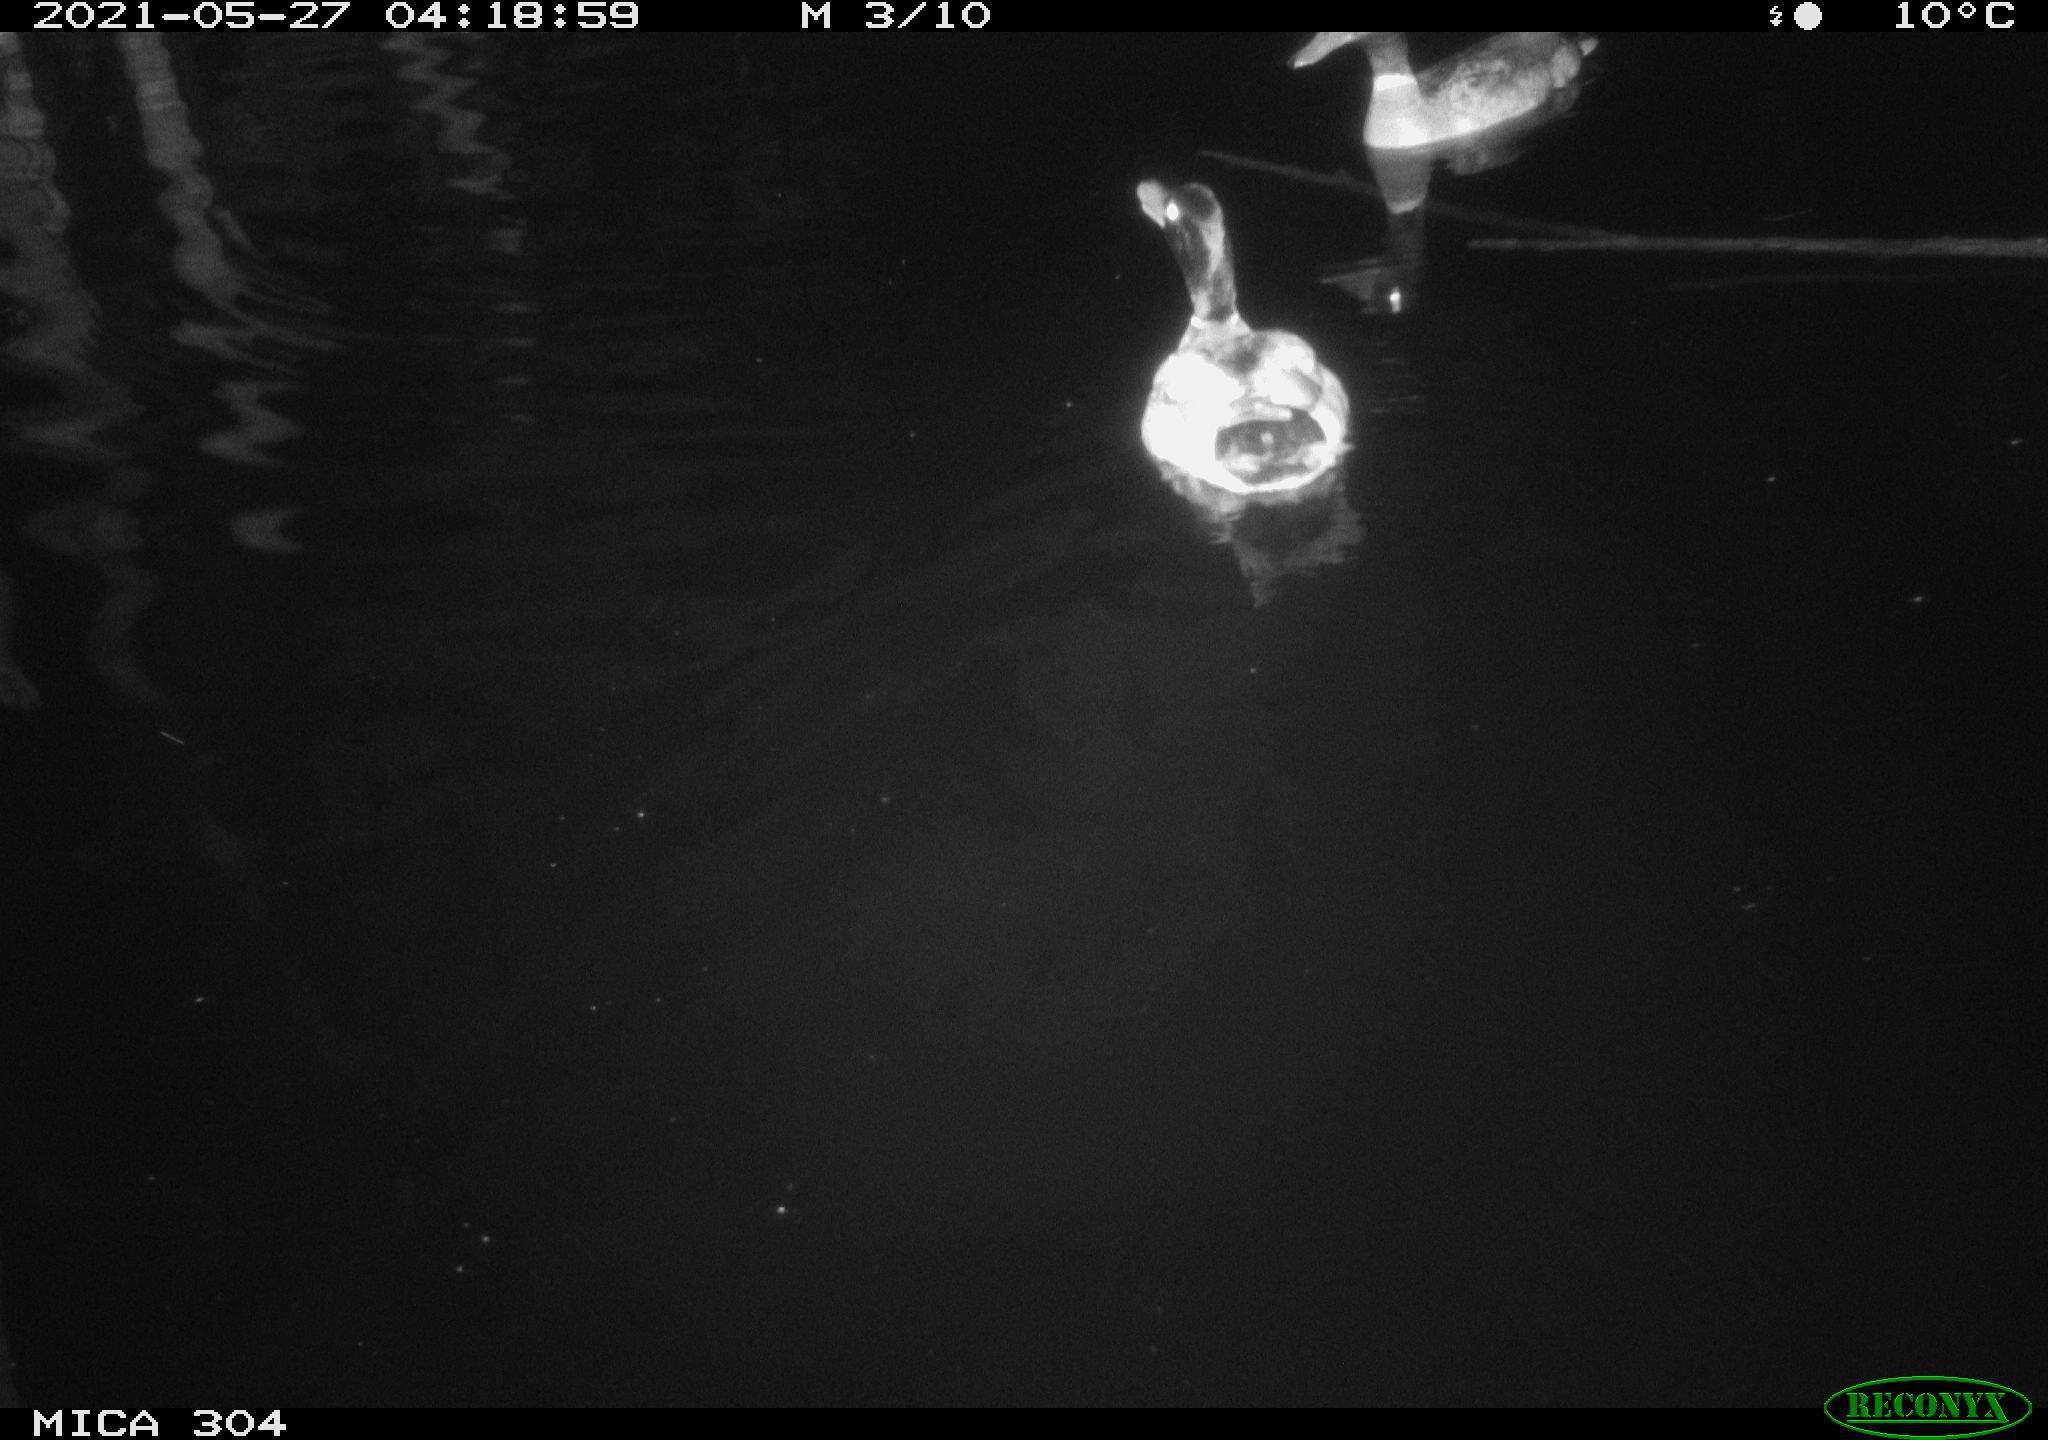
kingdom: Animalia
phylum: Chordata
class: Aves
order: Anseriformes
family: Anatidae
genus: Anas
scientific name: Anas platyrhynchos
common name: Mallard
